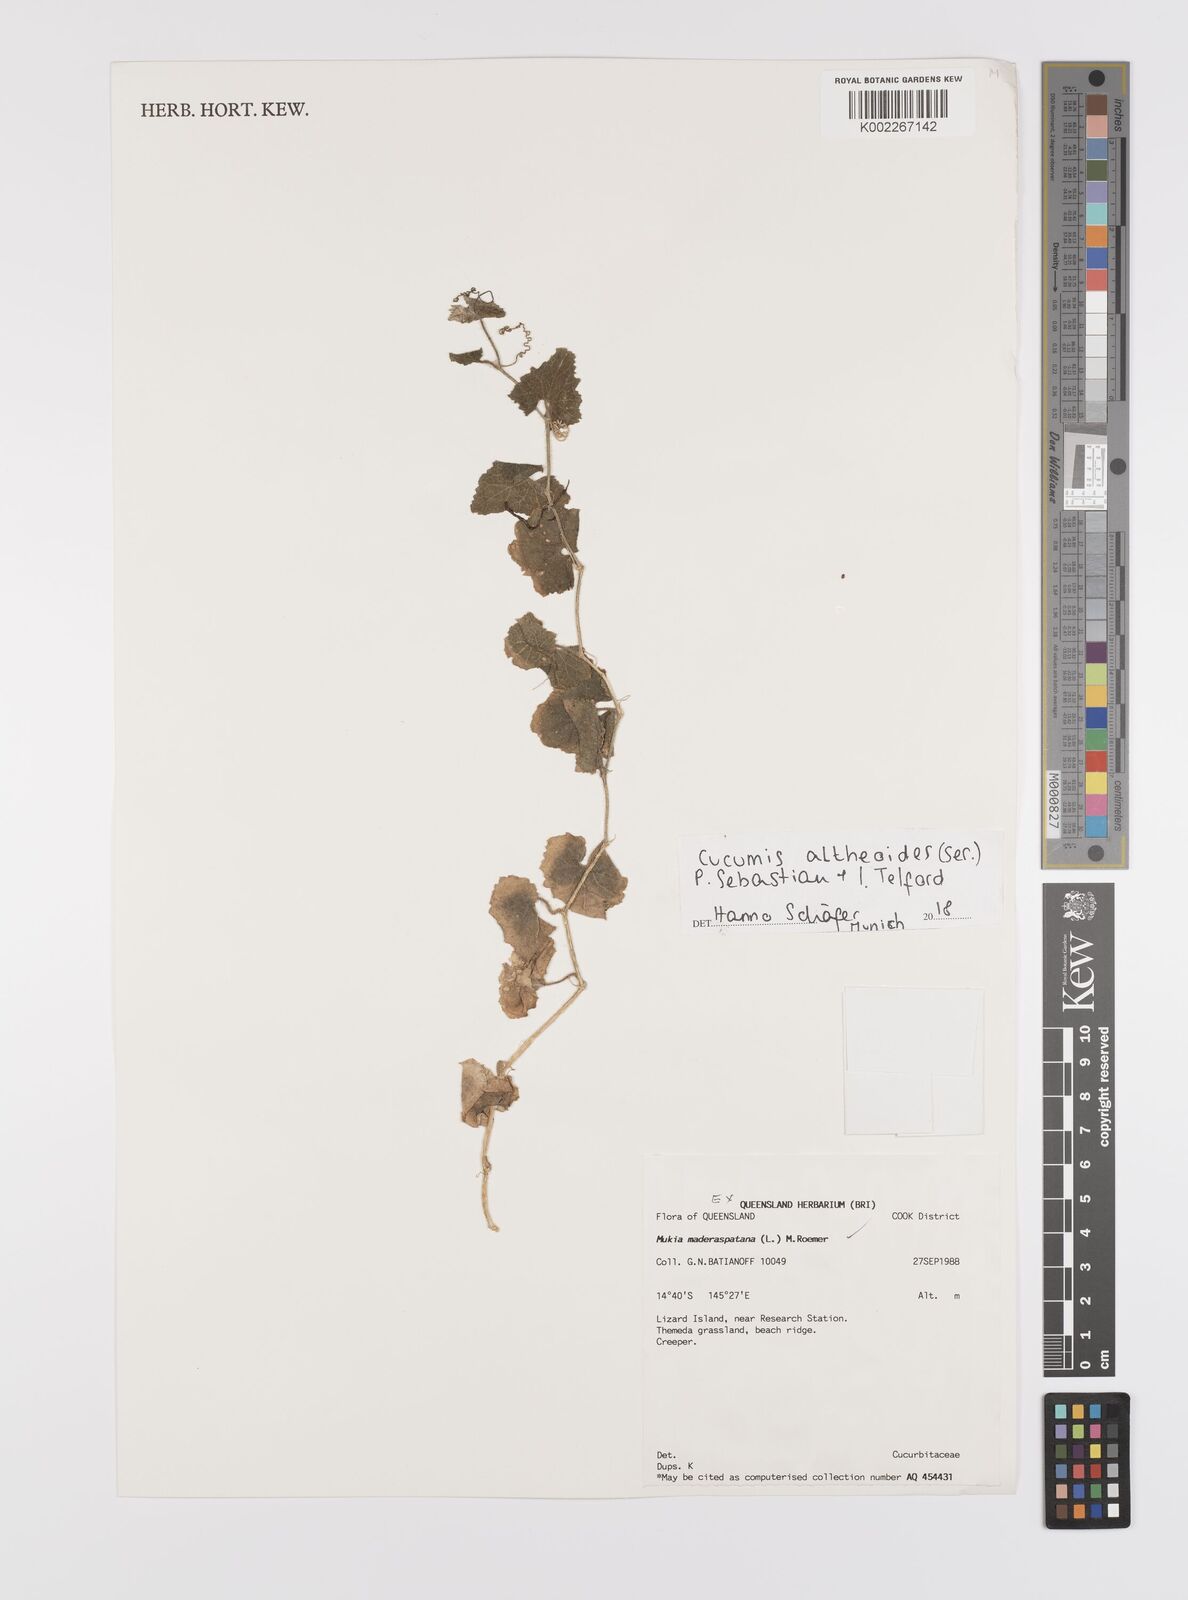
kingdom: Plantae
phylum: Tracheophyta
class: Magnoliopsida
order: Cucurbitales
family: Cucurbitaceae
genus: Cucumis
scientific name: Cucumis althaeoides
